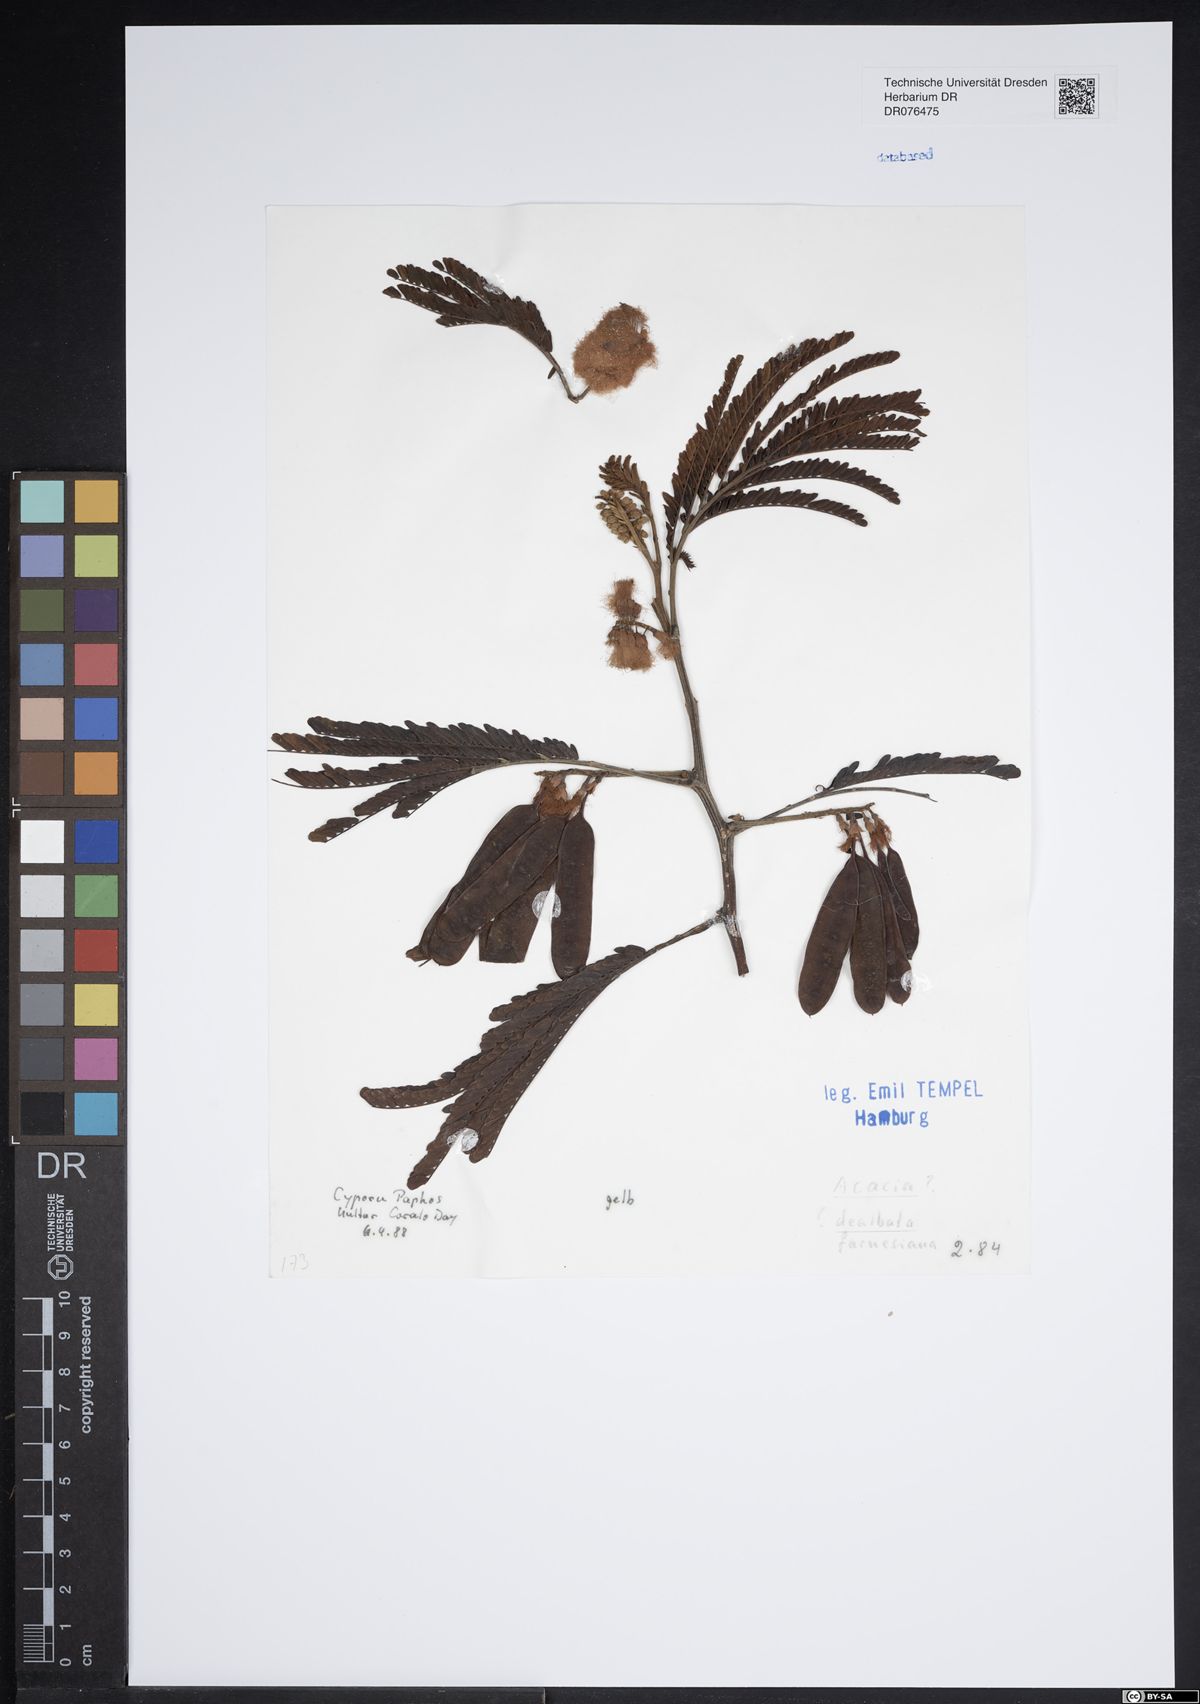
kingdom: Plantae
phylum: Tracheophyta
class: Magnoliopsida
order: Fabales
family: Fabaceae
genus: Acacia
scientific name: Acacia dealbata
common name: Silver wattle
